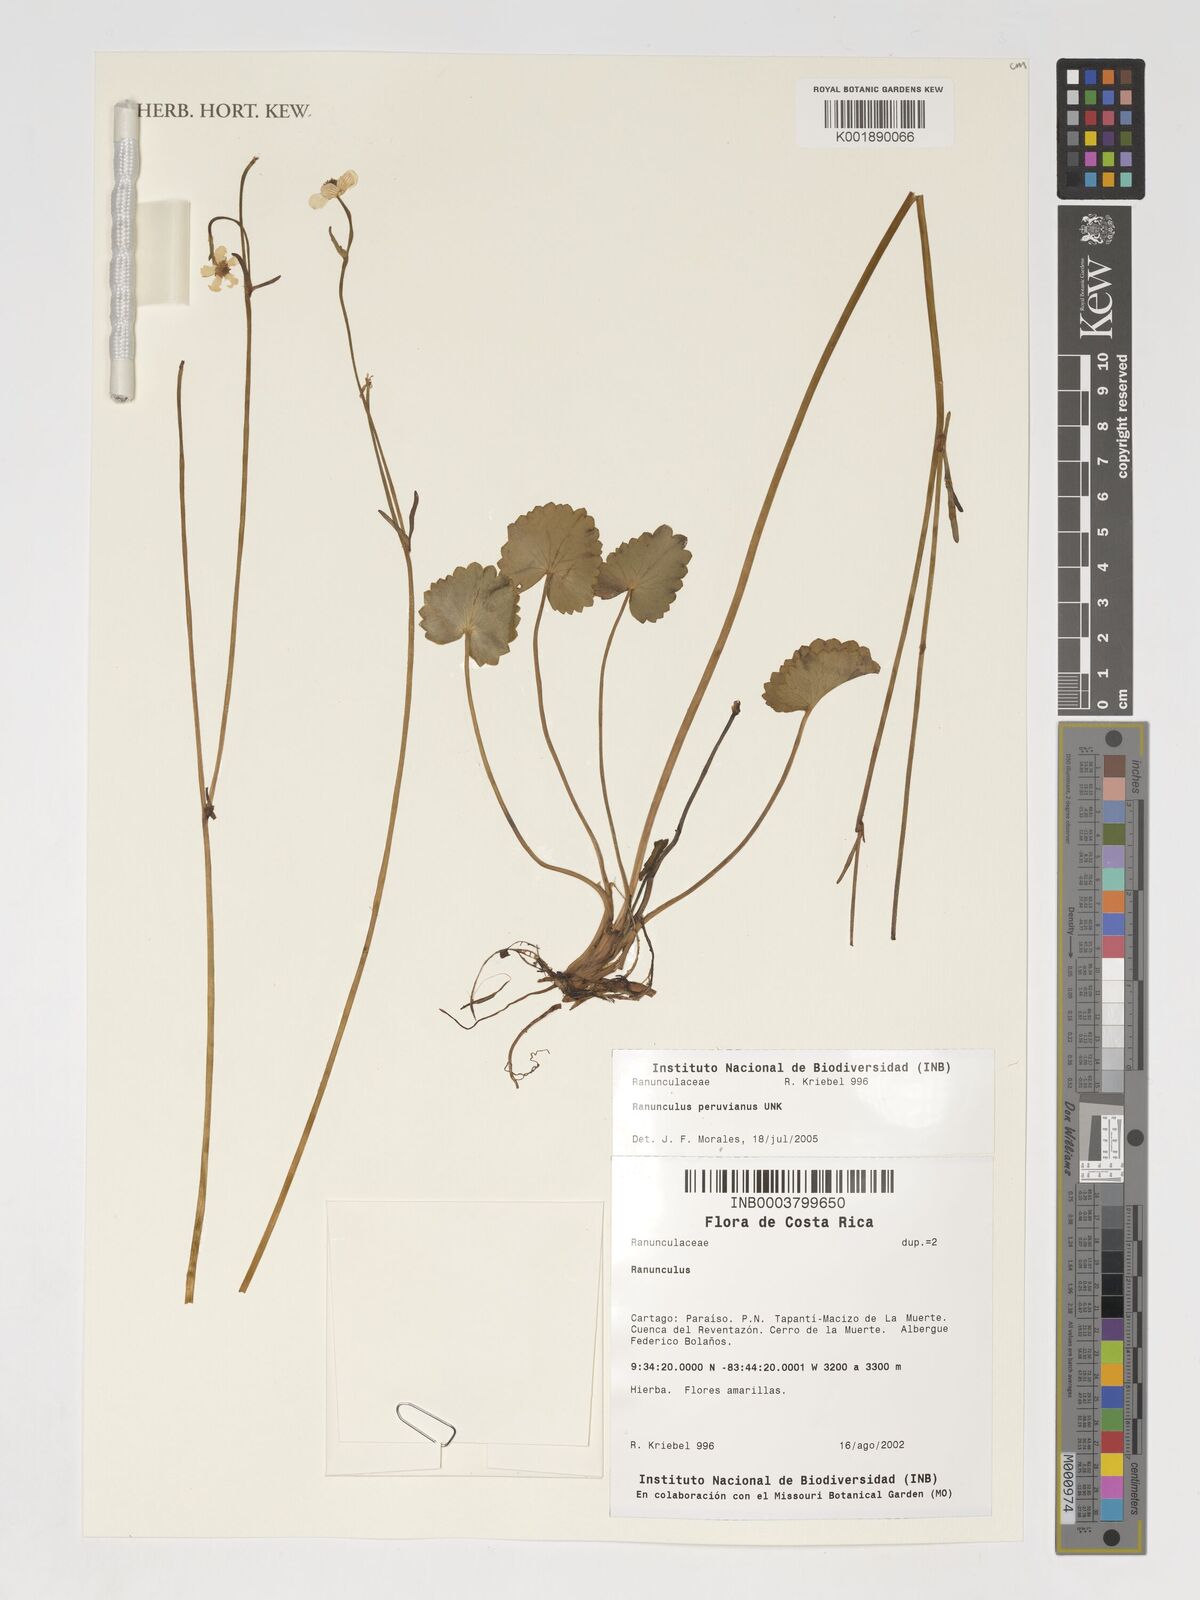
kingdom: Plantae
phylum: Tracheophyta
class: Magnoliopsida
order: Ranunculales
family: Ranunculaceae
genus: Ranunculus
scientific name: Ranunculus peruvianus
